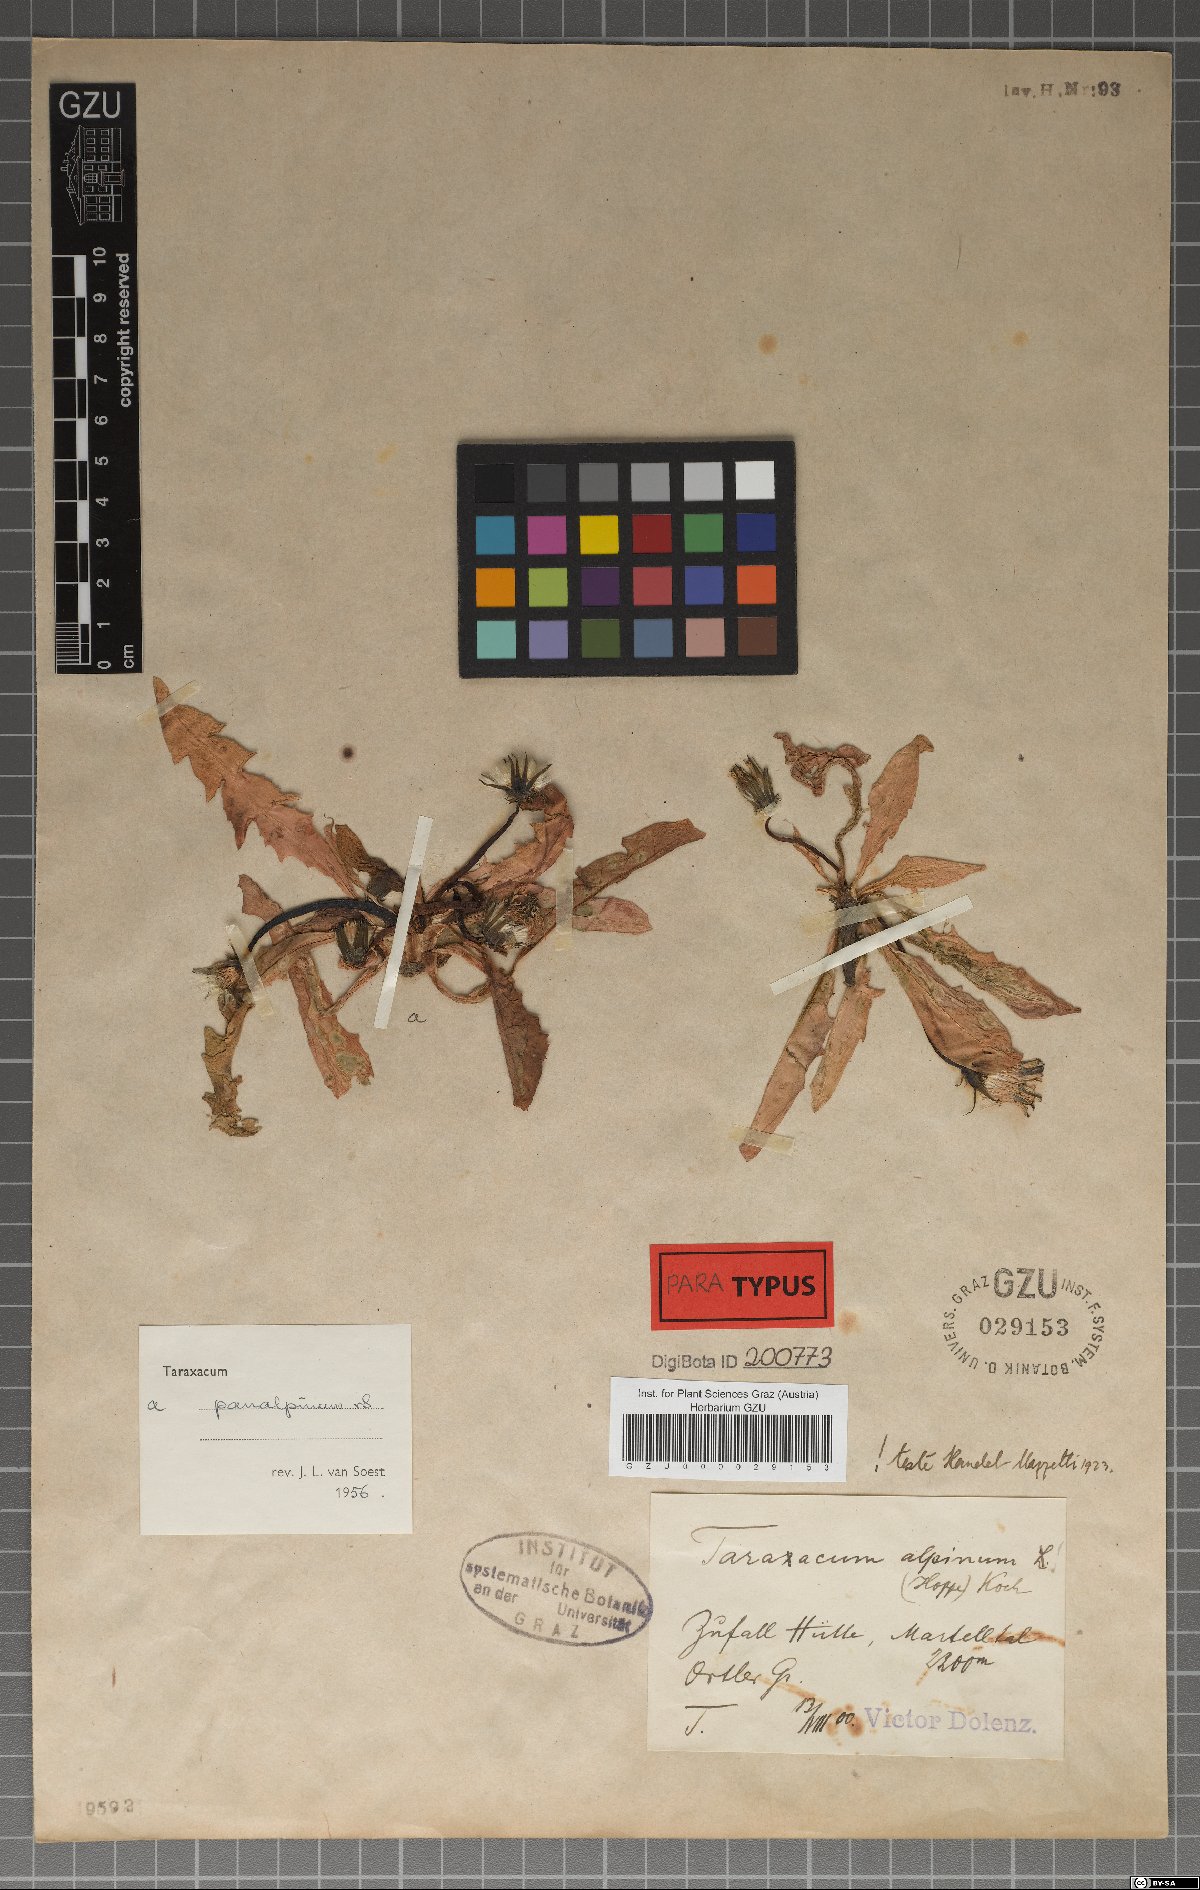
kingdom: Plantae
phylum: Tracheophyta
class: Magnoliopsida
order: Asterales
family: Asteraceae
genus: Taraxacum
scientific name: Taraxacum panalpinum
